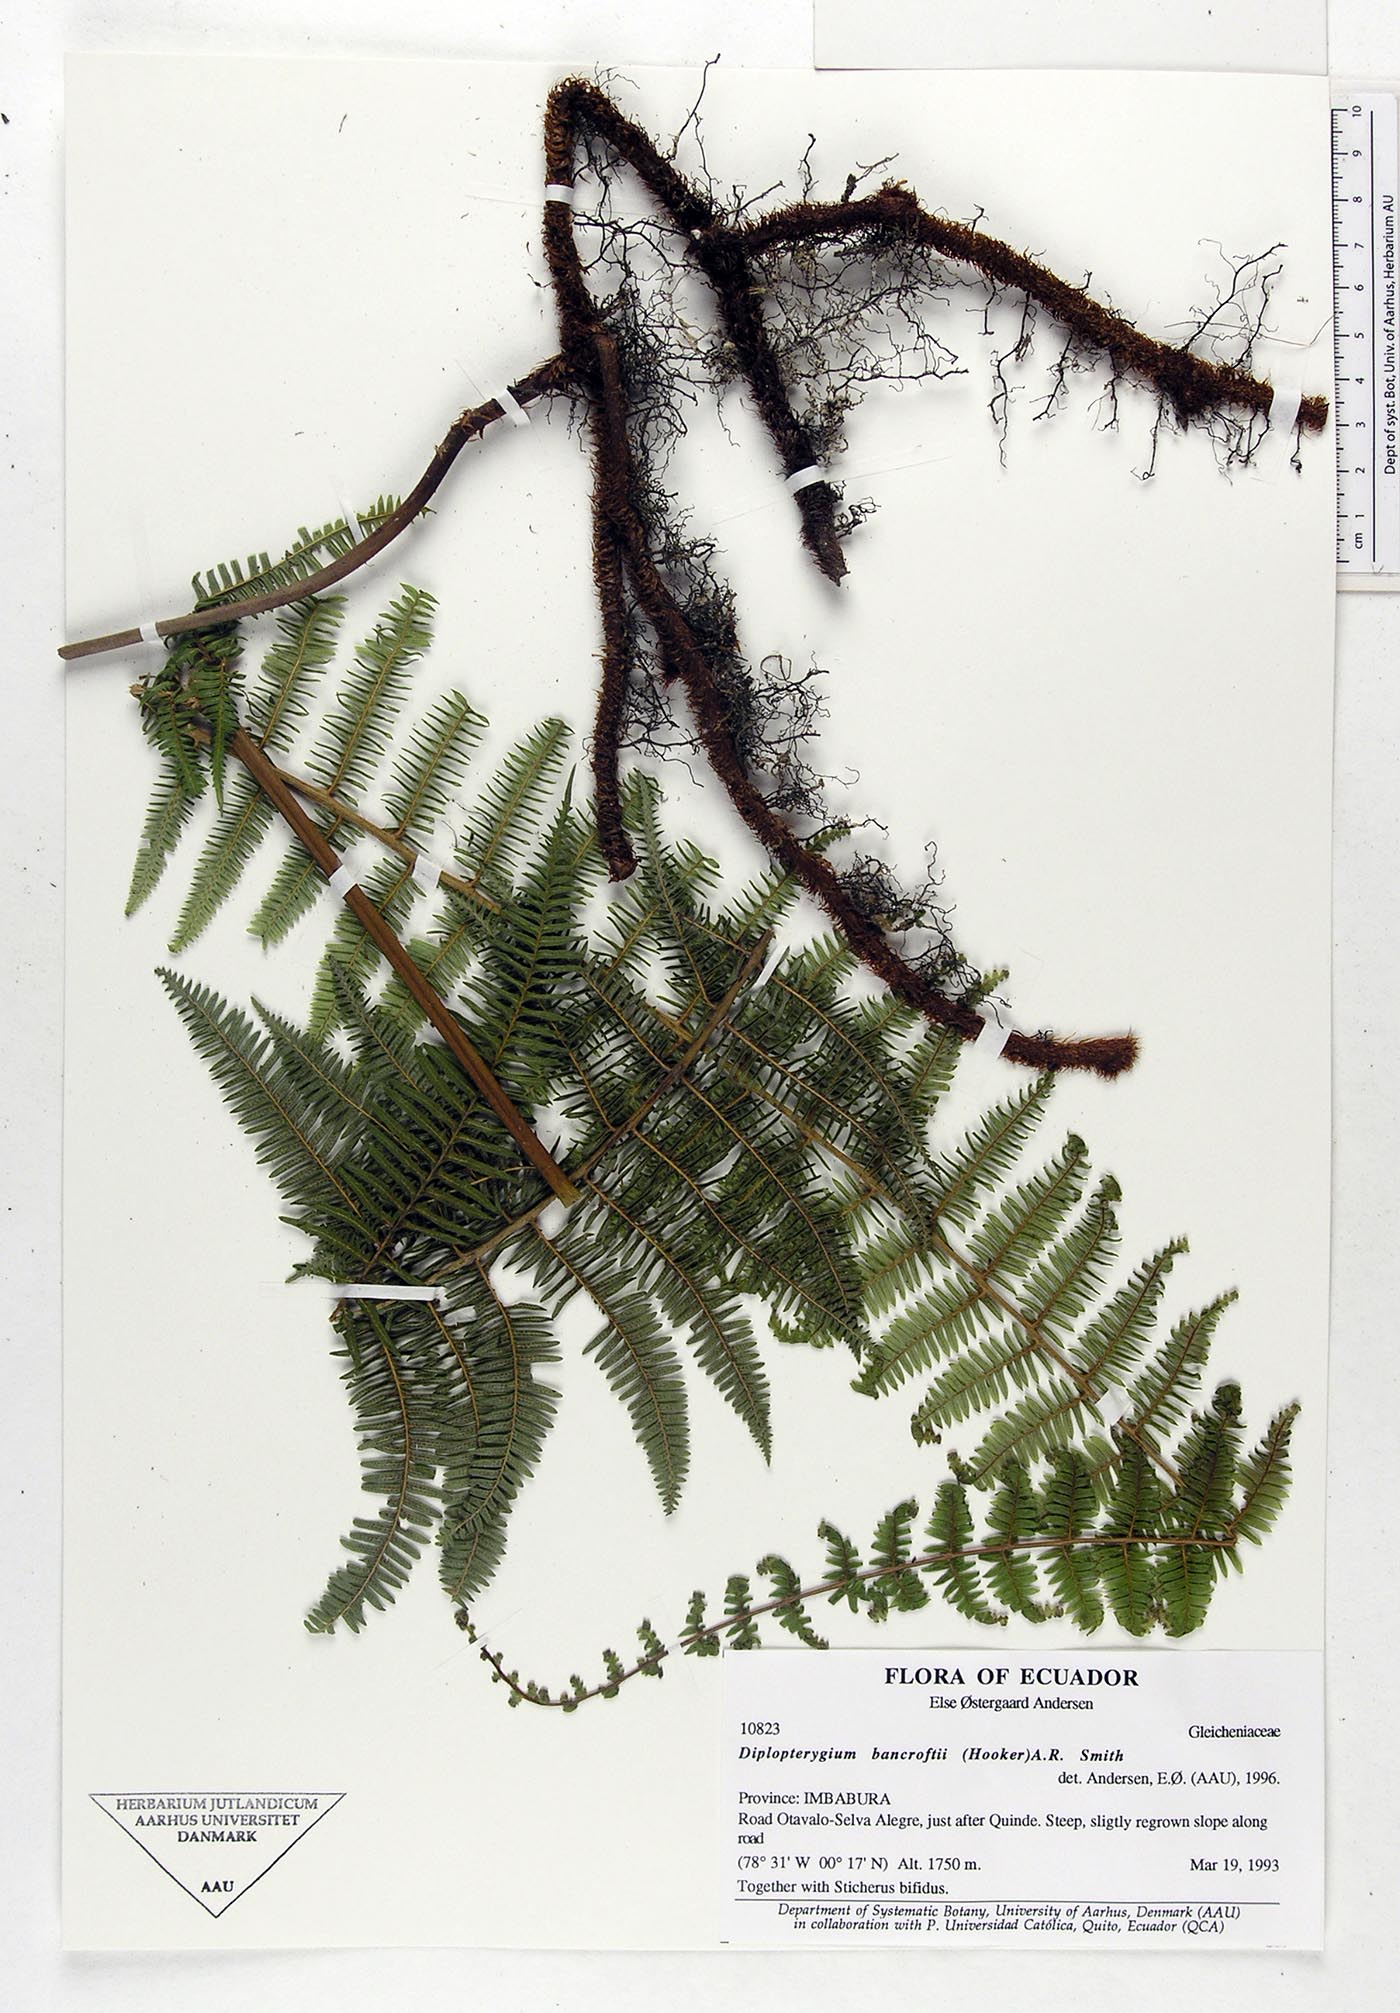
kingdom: Plantae
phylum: Tracheophyta
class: Polypodiopsida
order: Gleicheniales
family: Gleicheniaceae
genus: Diplopterygium
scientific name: Diplopterygium bancroftii
